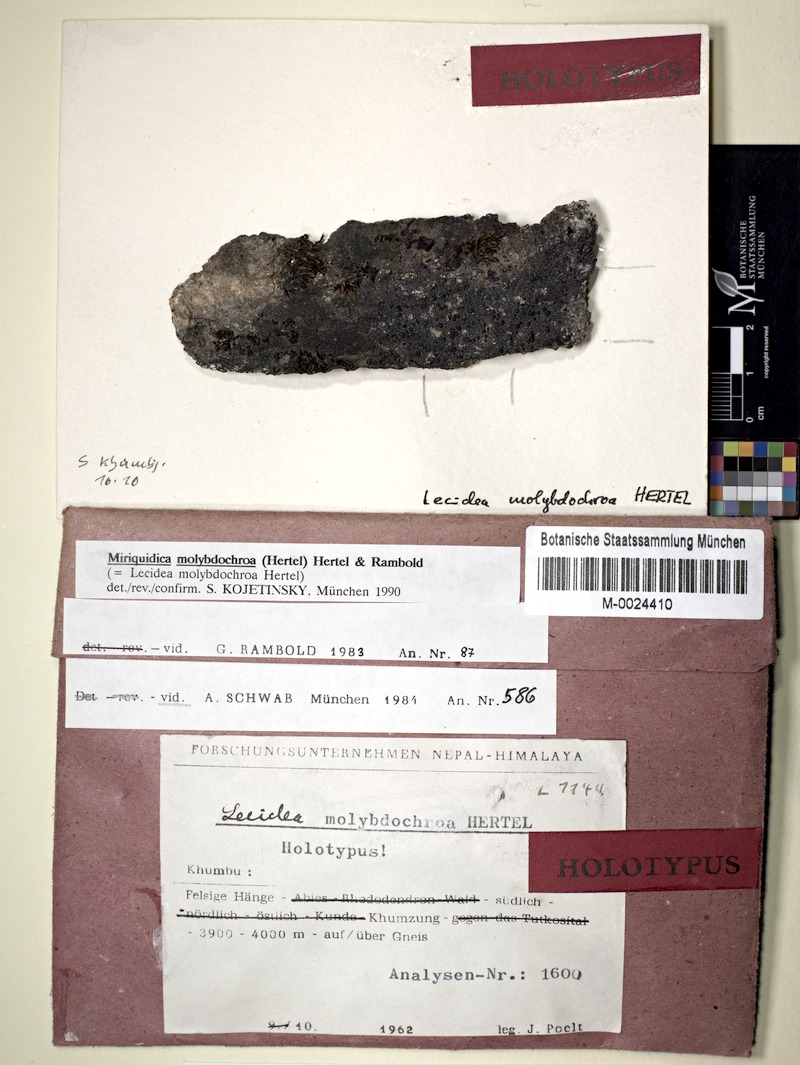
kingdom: Fungi
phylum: Ascomycota
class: Lecanoromycetes
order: Lecanorales
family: Lecanoraceae
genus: Miriquidica
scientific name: Miriquidica molybdochroa
